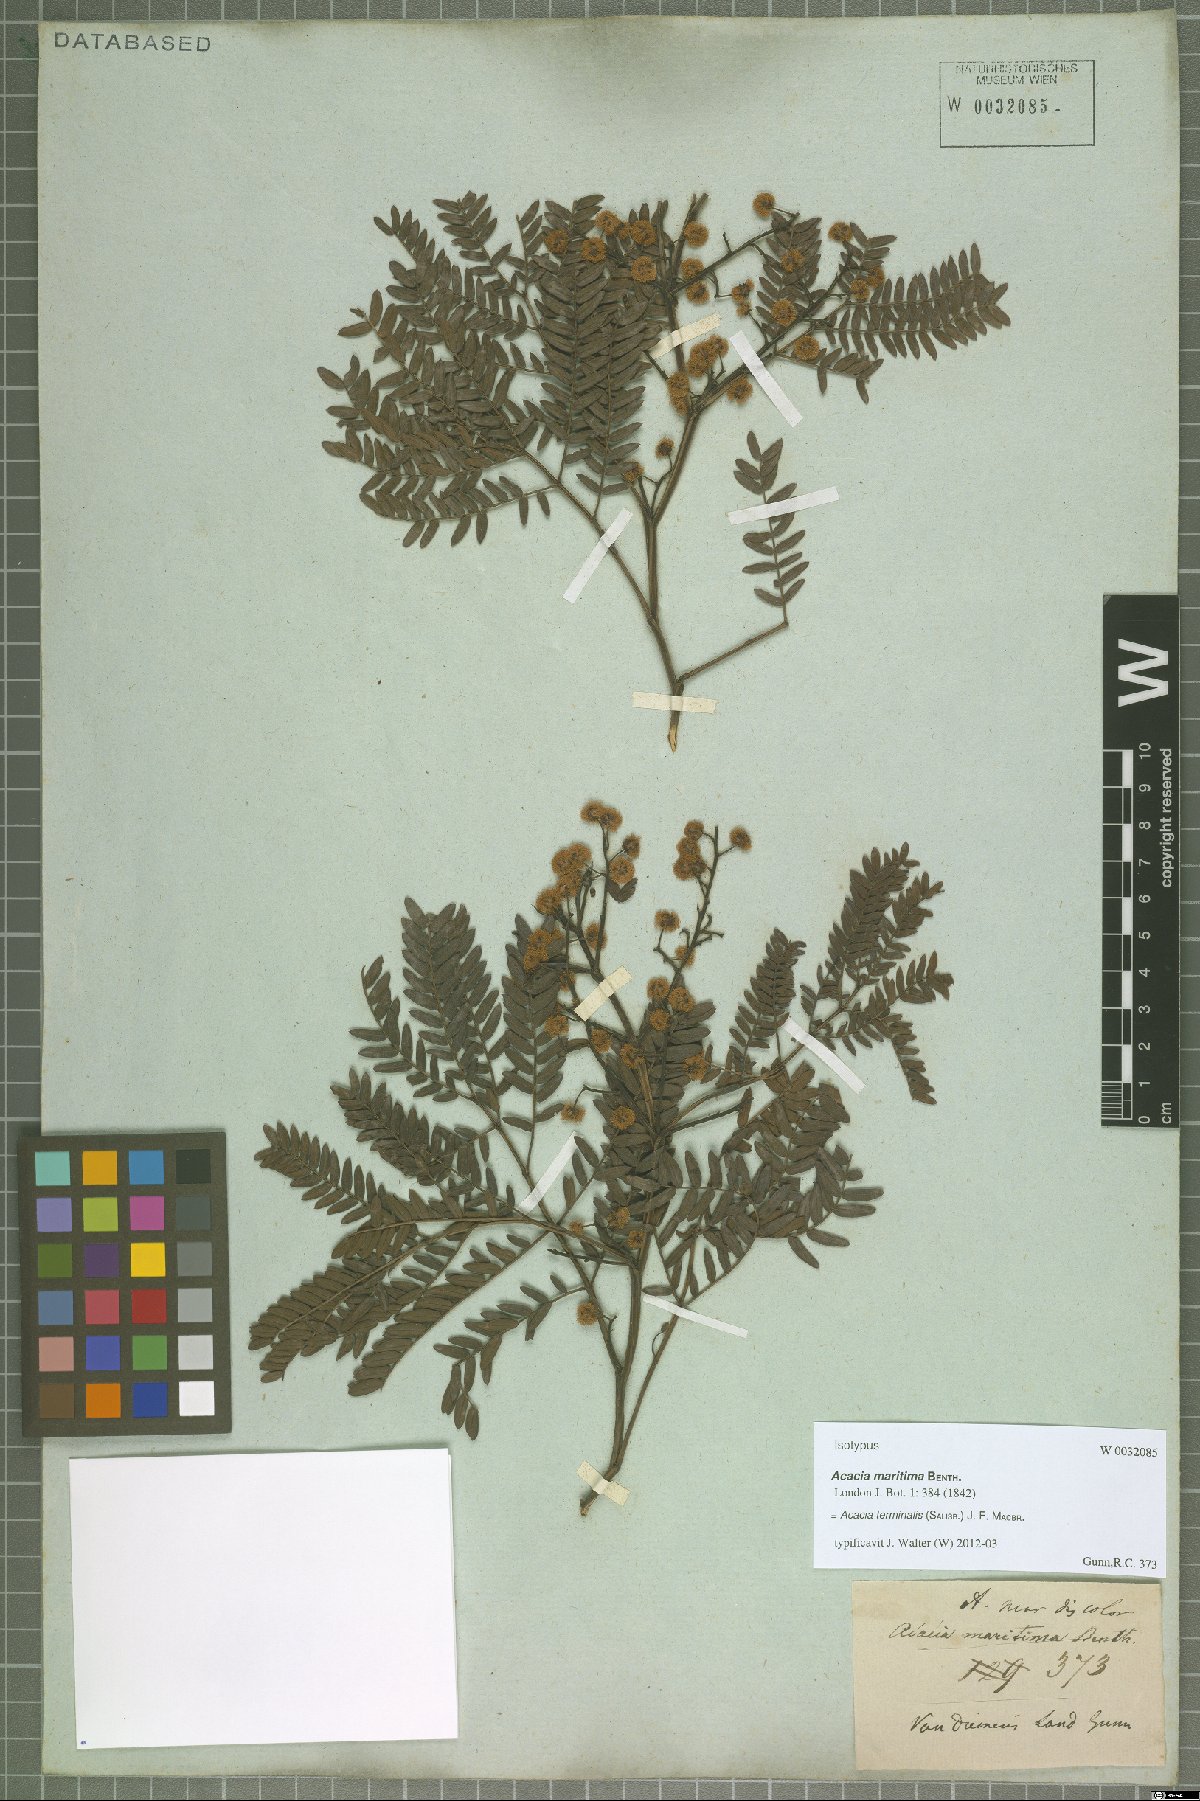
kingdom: Plantae
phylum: Tracheophyta
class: Magnoliopsida
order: Fabales
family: Fabaceae
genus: Acacia
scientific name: Acacia terminalis
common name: Cedar wattle
